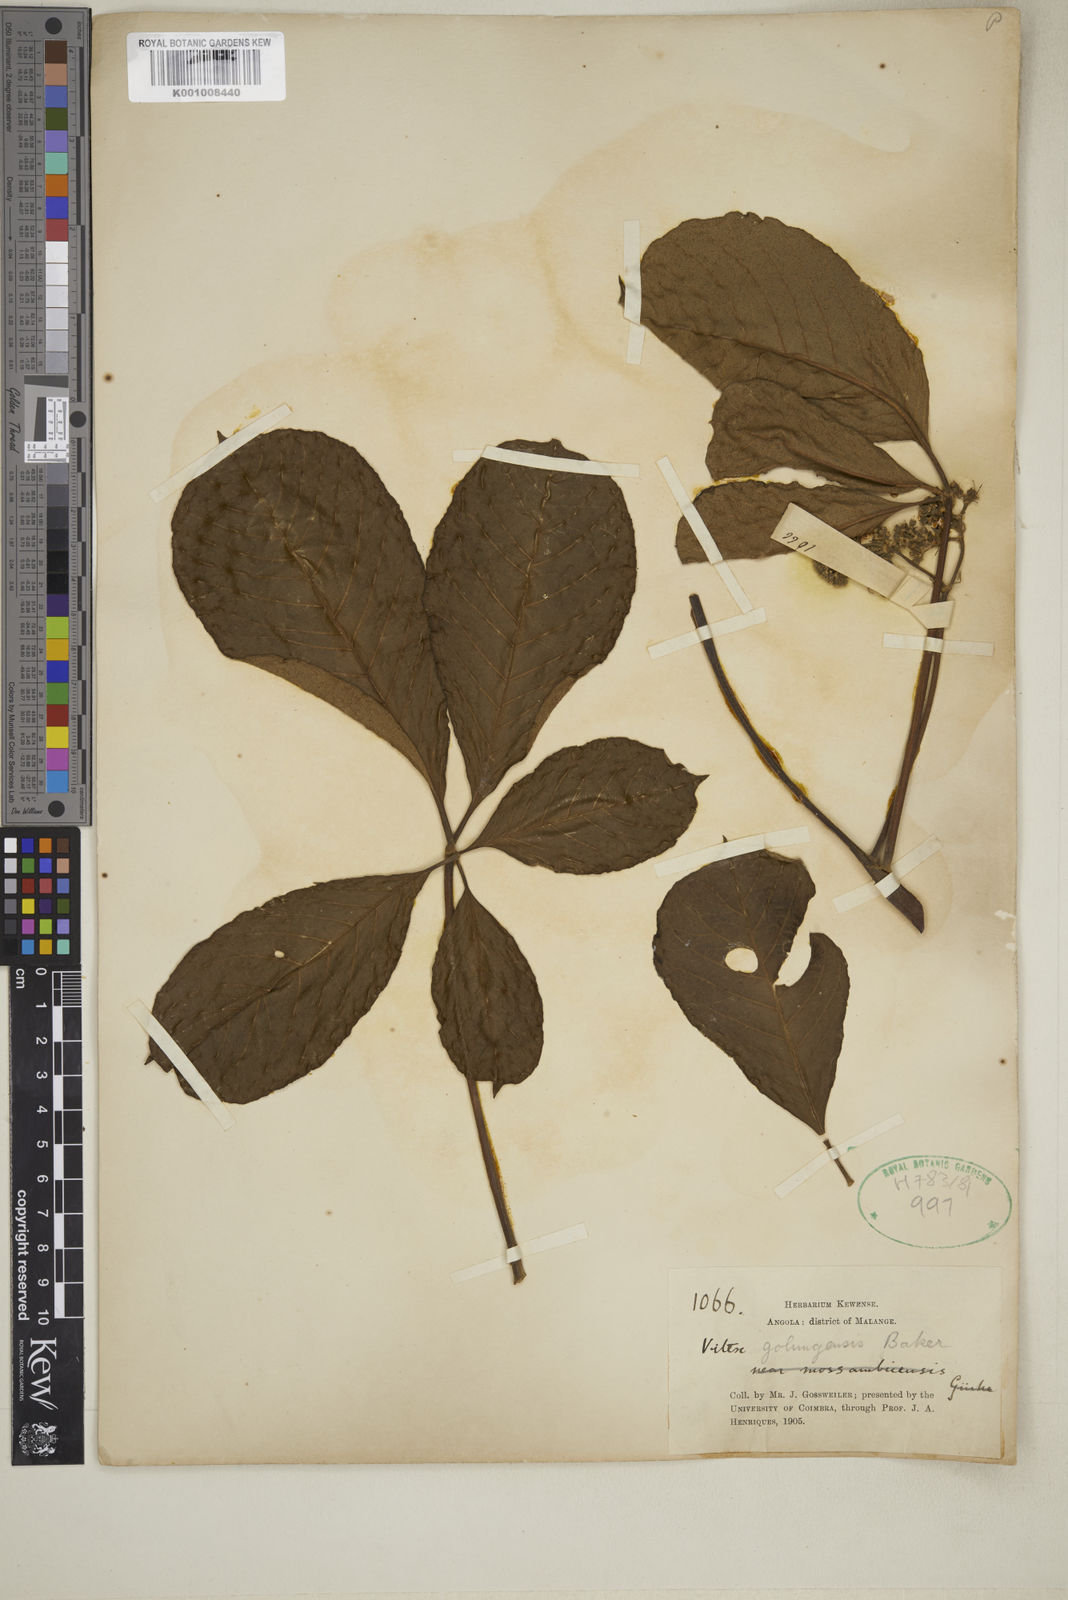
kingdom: Plantae
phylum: Tracheophyta
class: Magnoliopsida
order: Lamiales
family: Lamiaceae
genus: Vitex
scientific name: Vitex madiensis
